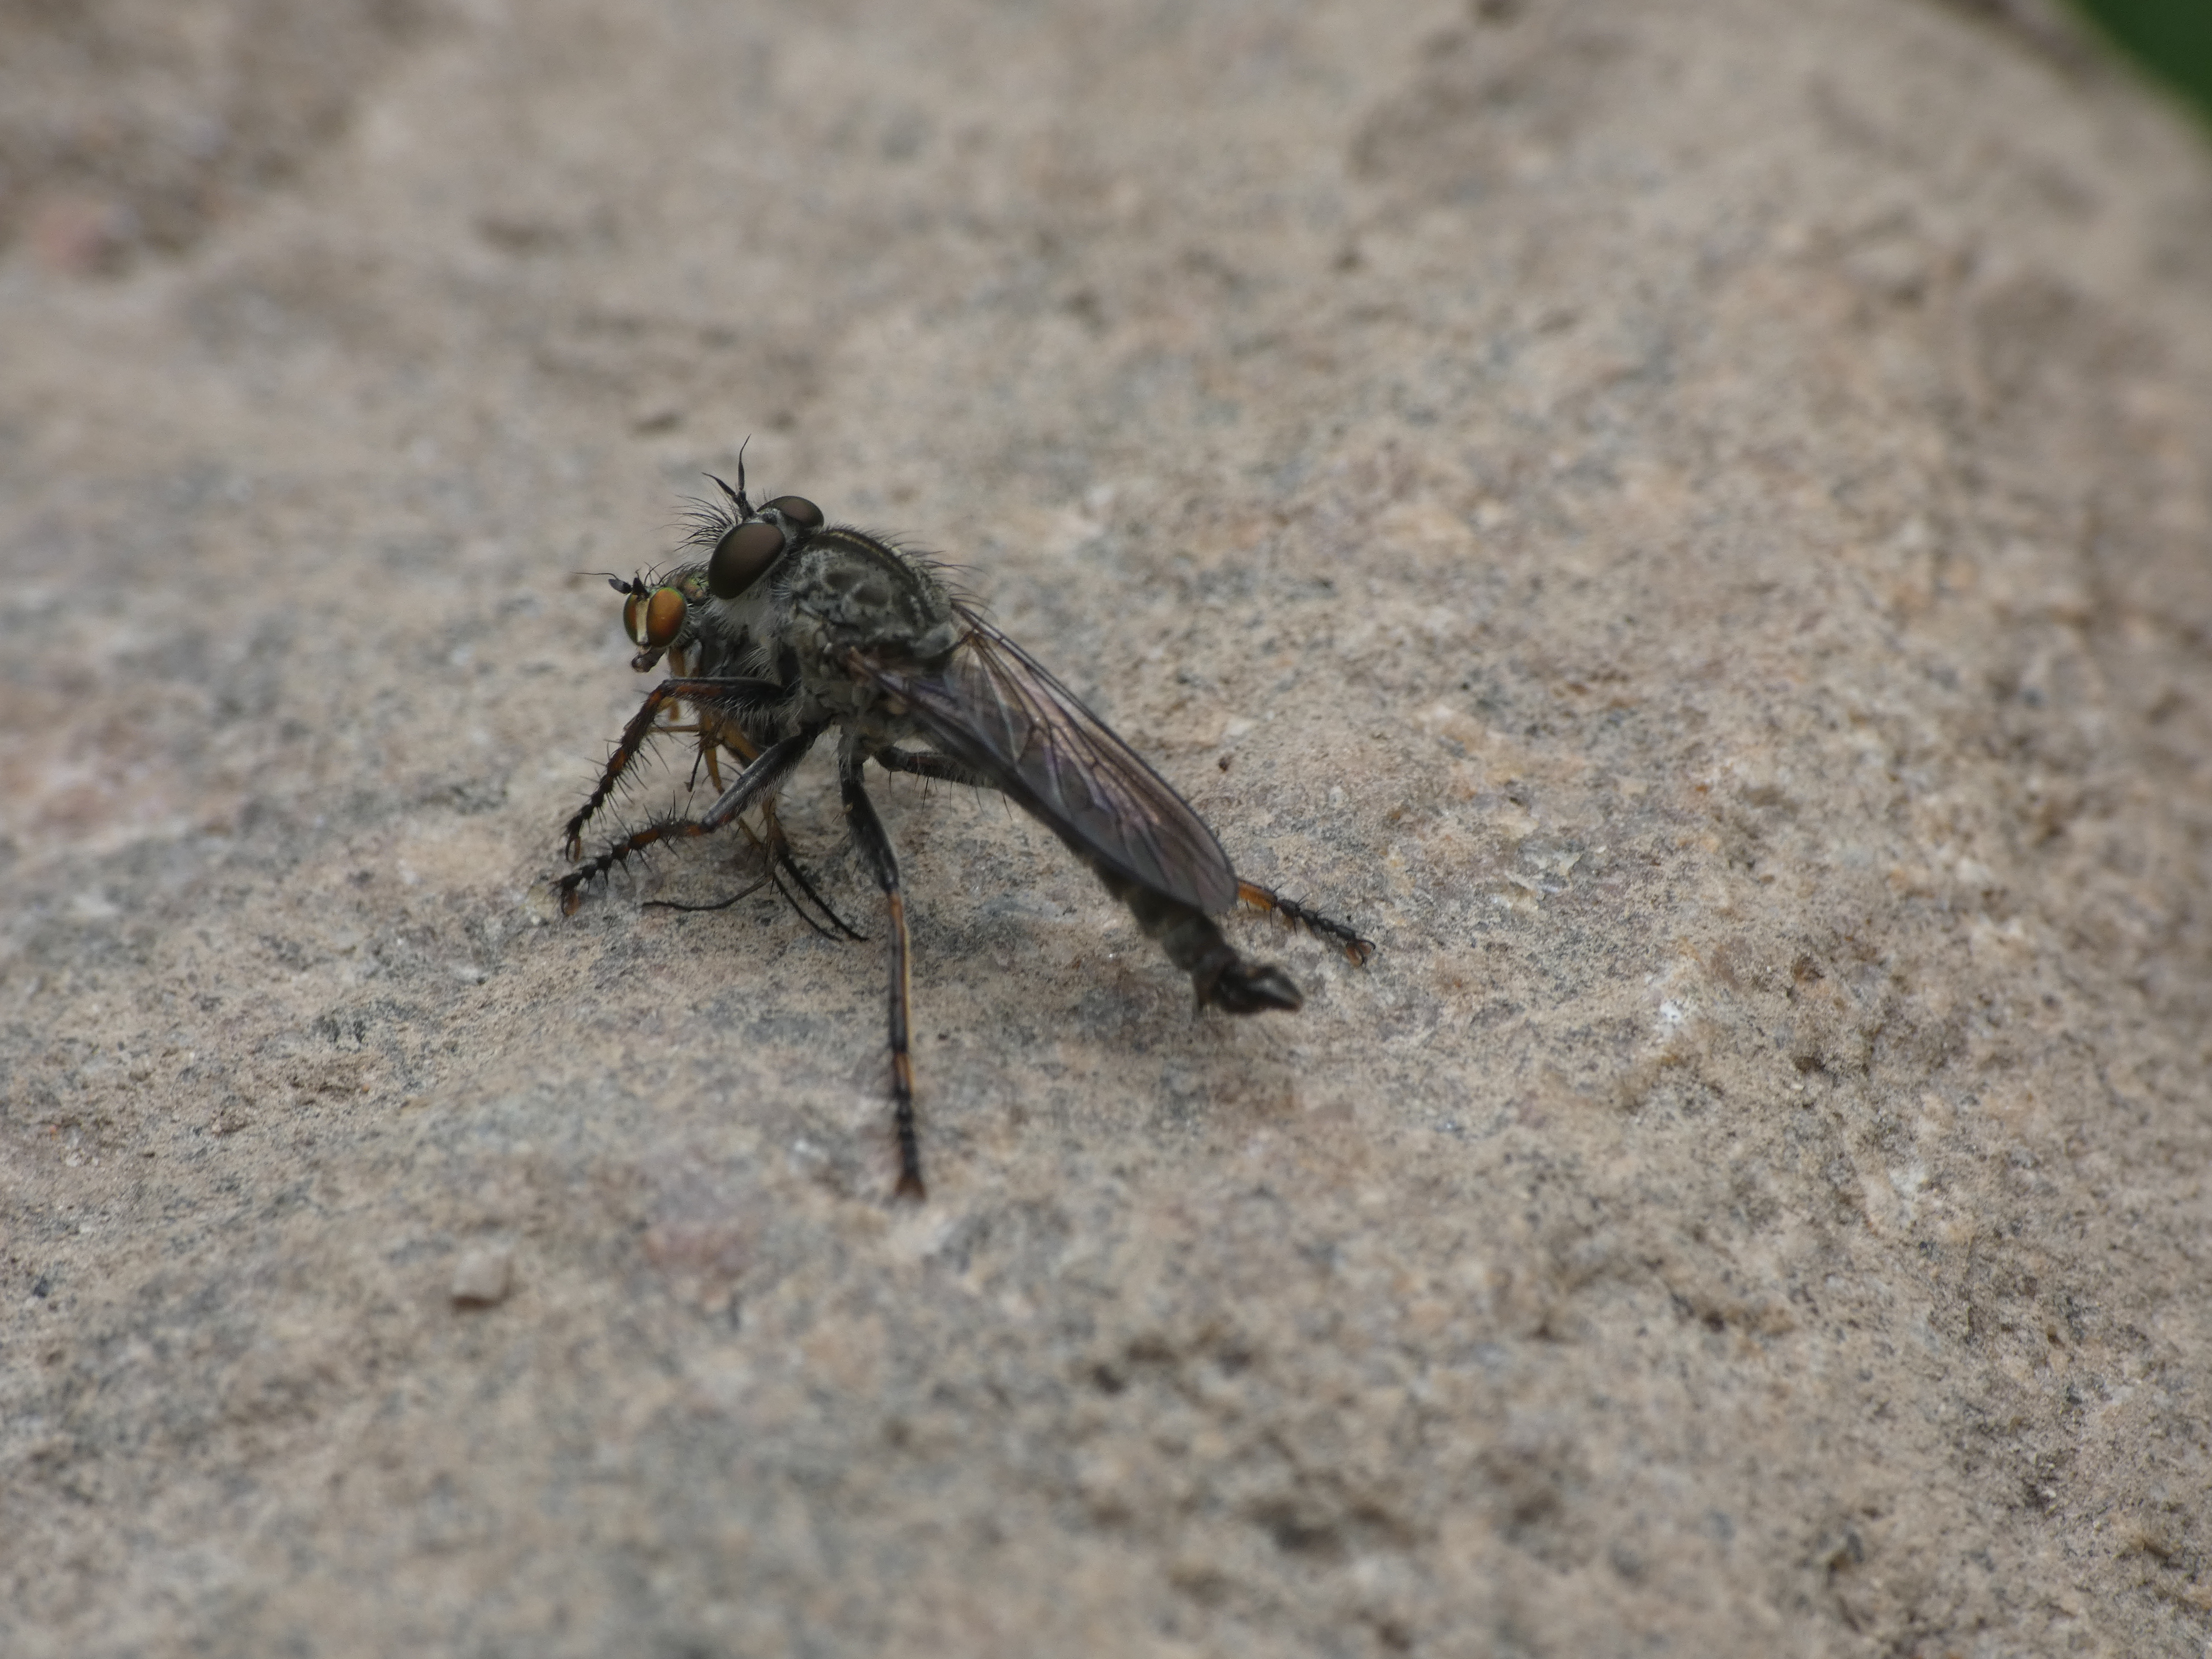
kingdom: Animalia
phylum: Arthropoda
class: Insecta
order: Diptera
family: Asilidae
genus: Machimus
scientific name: Machimus atricapillus
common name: Sort hårrovflue
